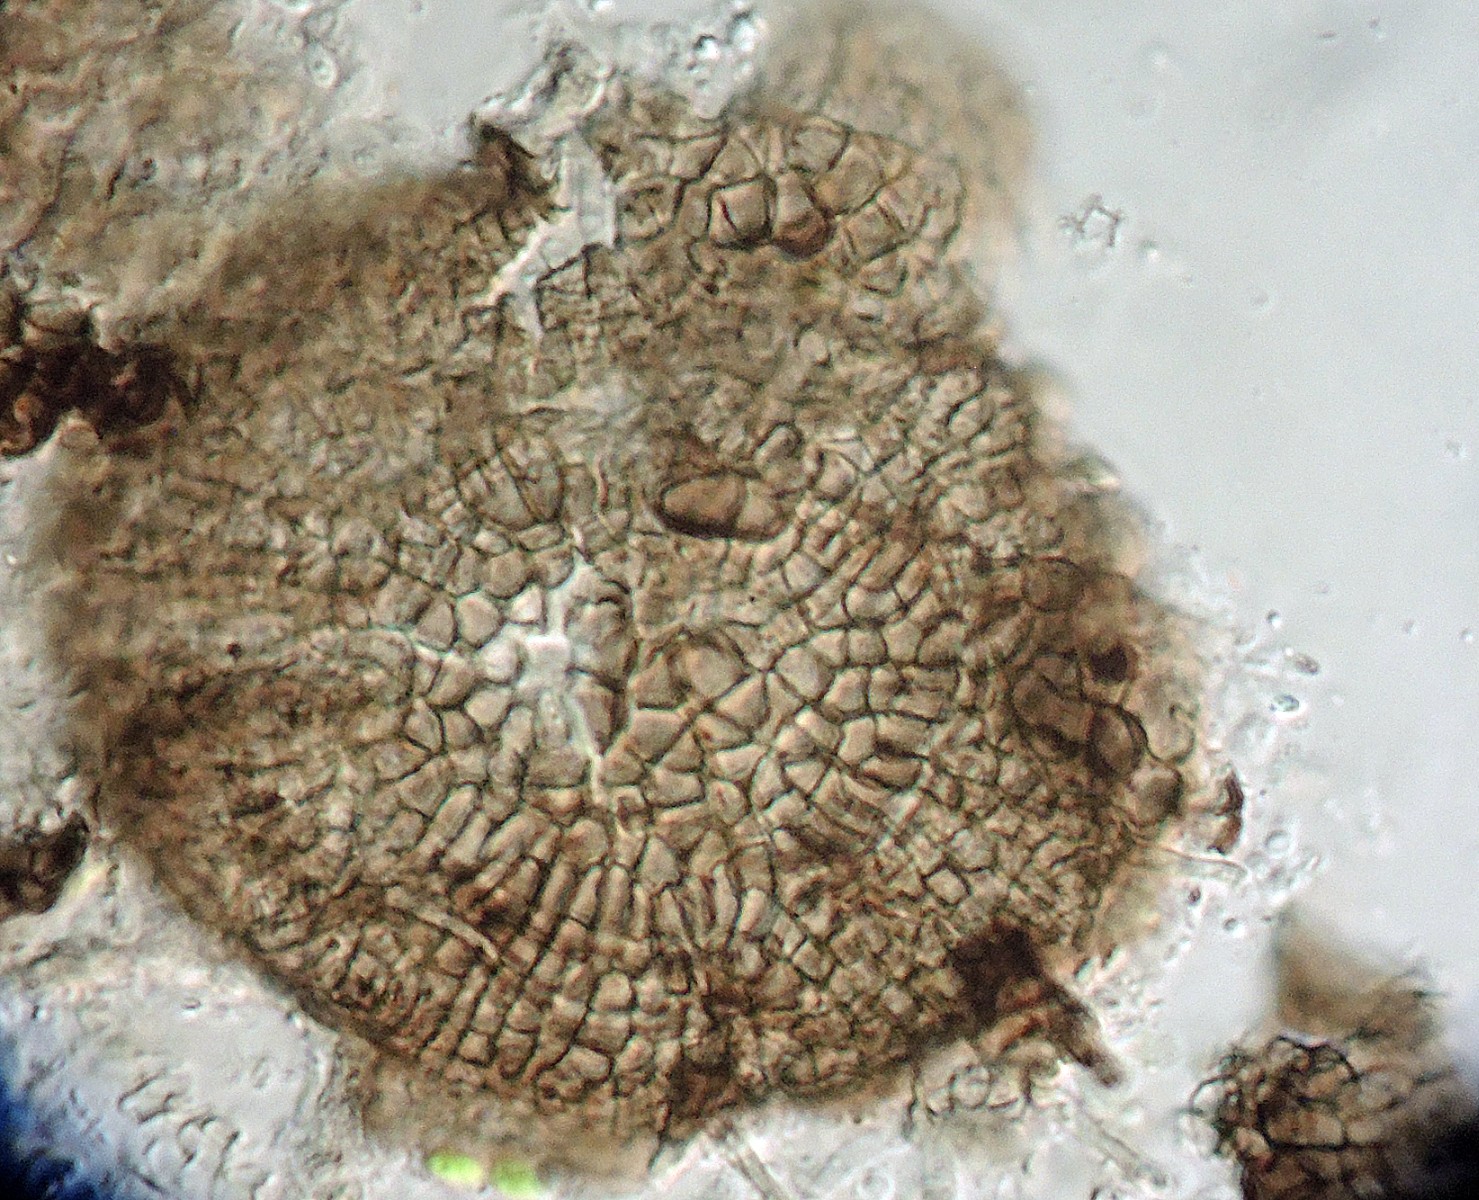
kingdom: Fungi
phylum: Ascomycota
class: Dothideomycetes
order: Microthyriales
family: Microthyriaceae
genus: Microthyrium
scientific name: Microthyrium gramineum
